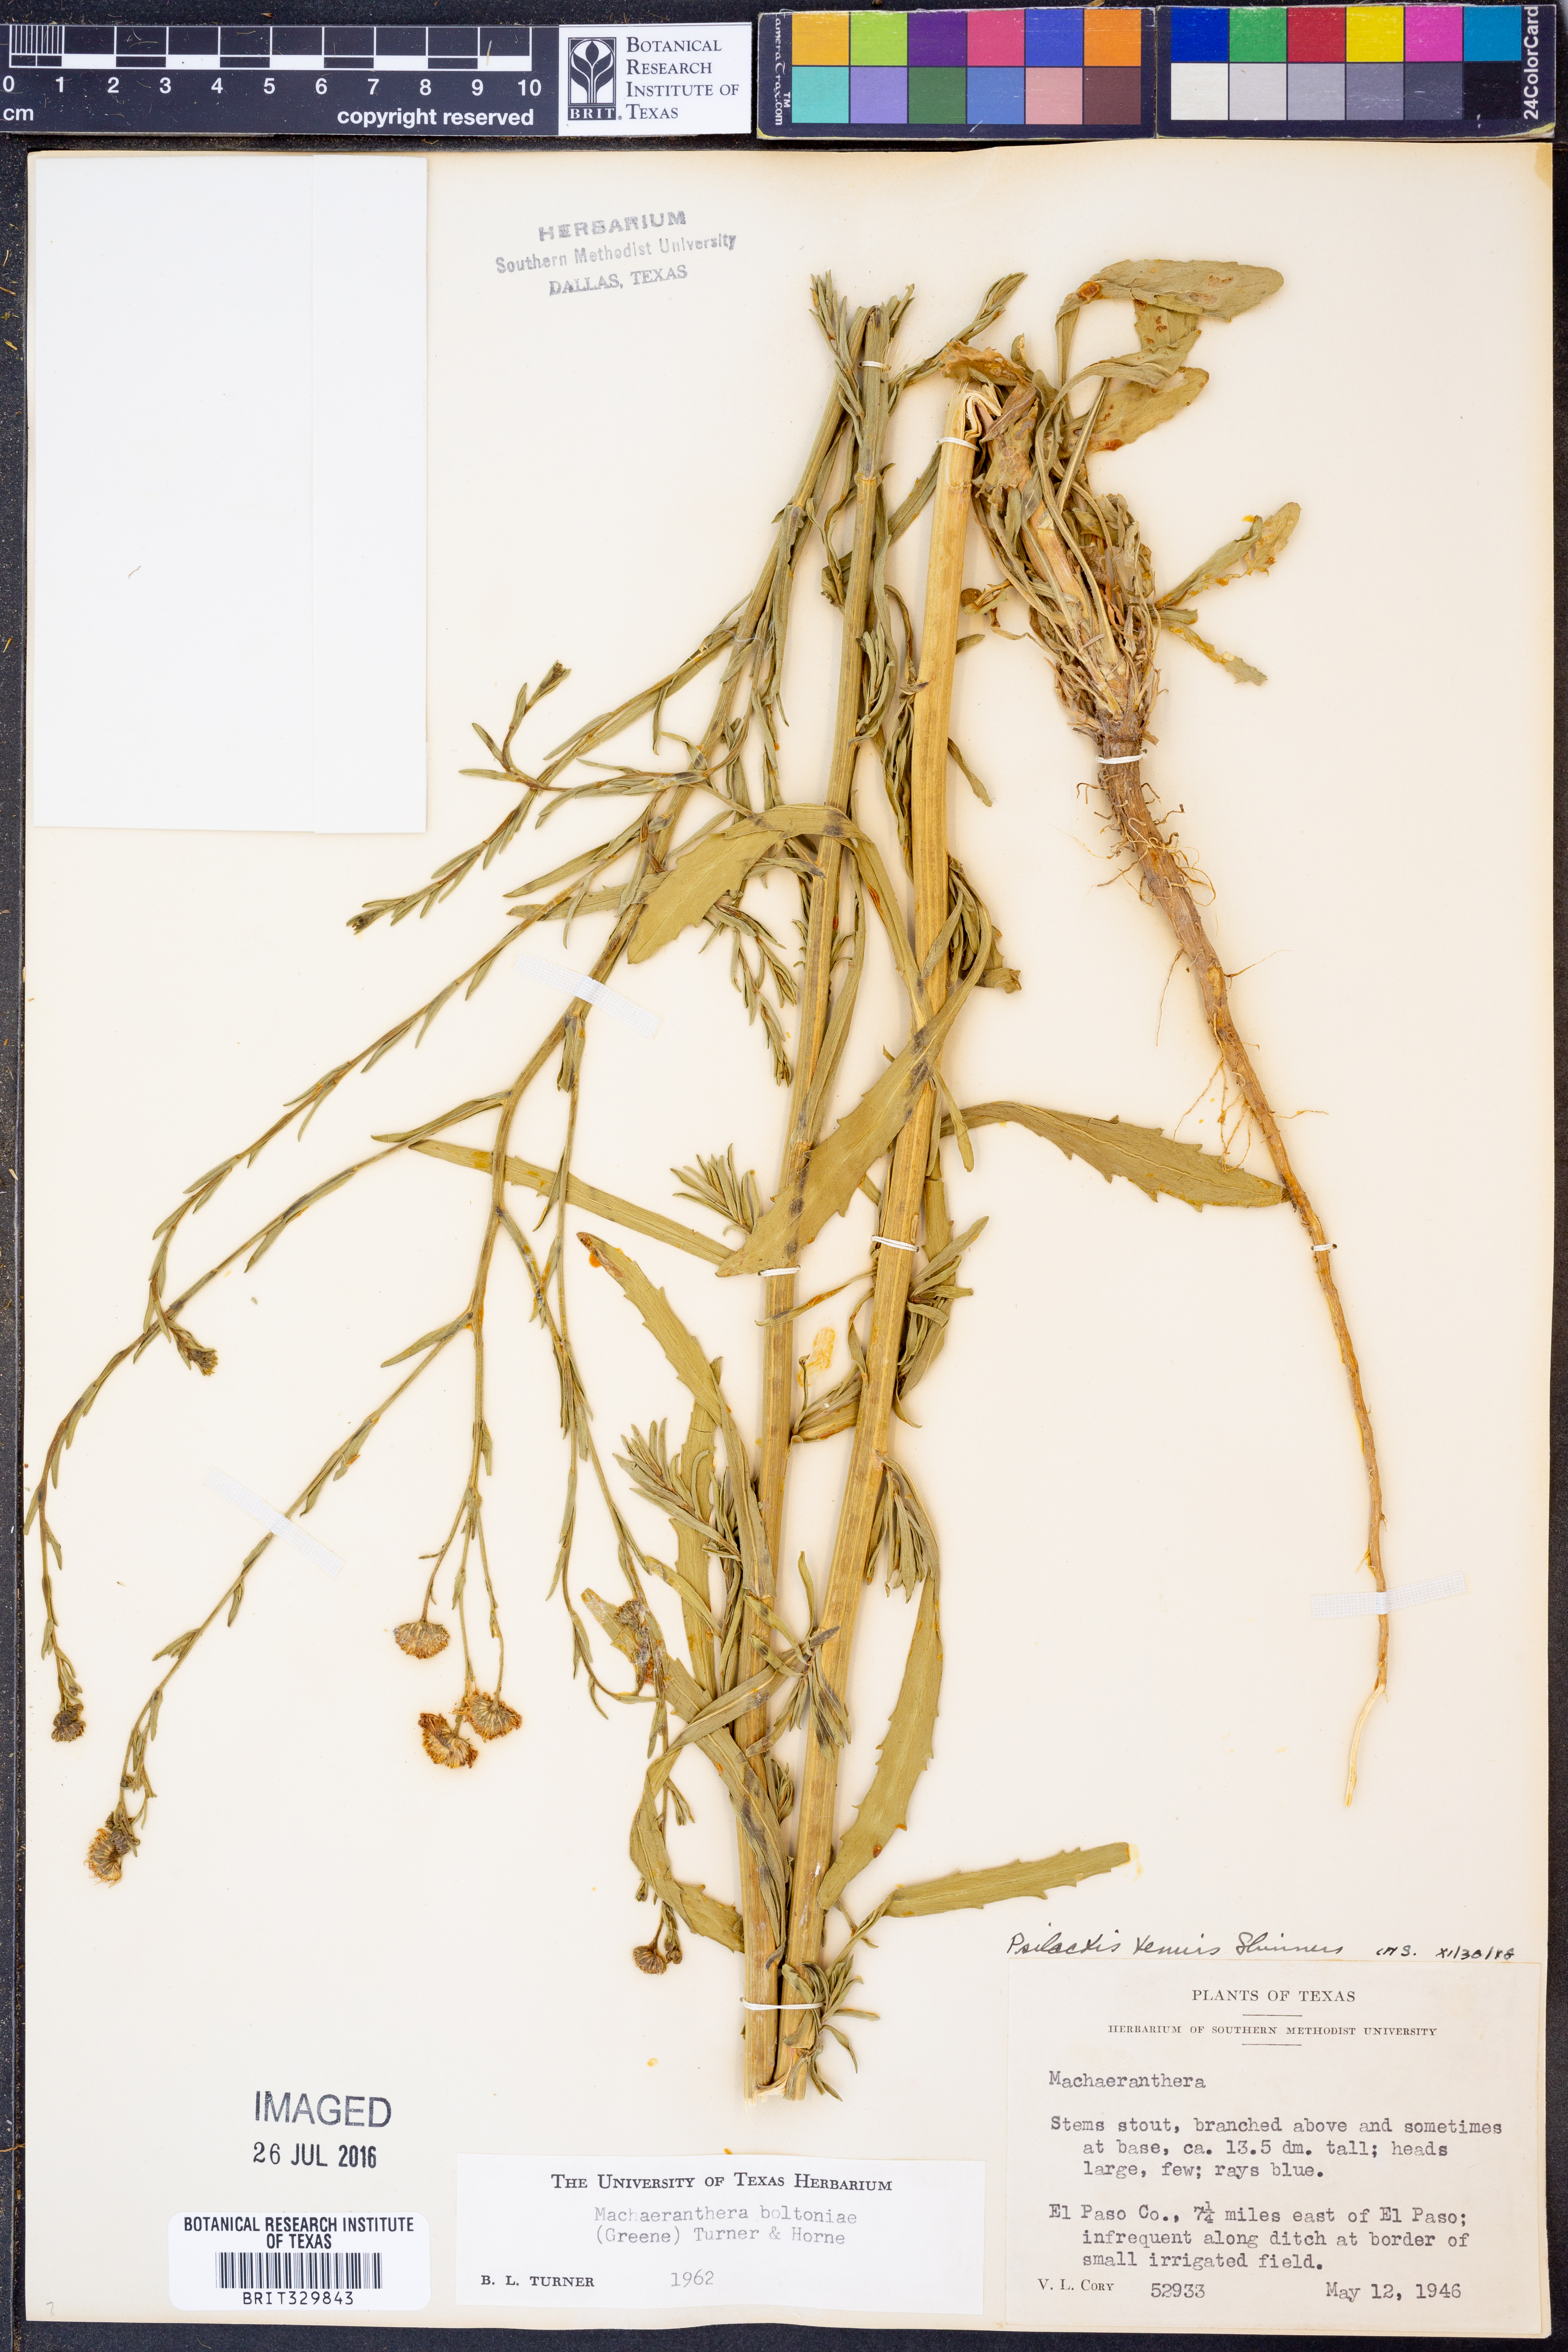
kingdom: Plantae
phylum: Tracheophyta
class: Magnoliopsida
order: Asterales
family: Asteraceae
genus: Psilactis
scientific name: Psilactis asteroides
